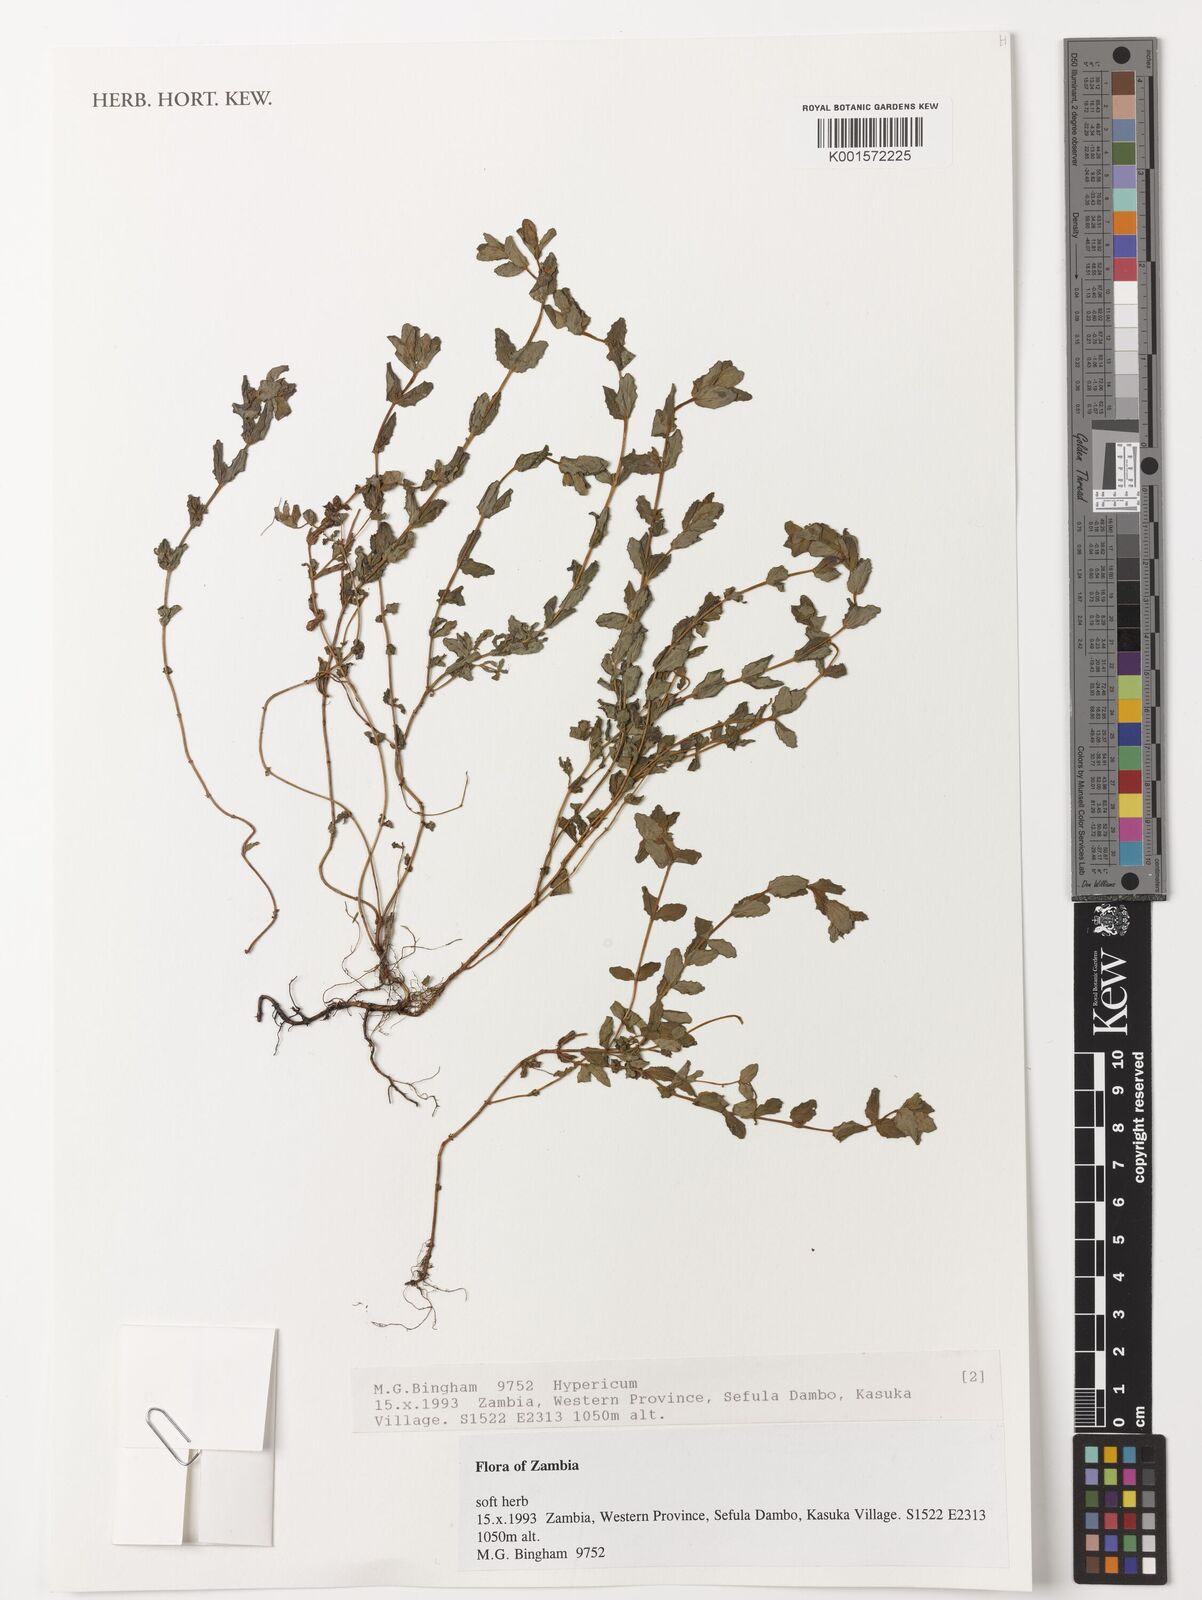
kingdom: Plantae
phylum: Tracheophyta
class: Magnoliopsida
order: Malpighiales
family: Hypericaceae
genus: Hypericum
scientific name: Hypericum
